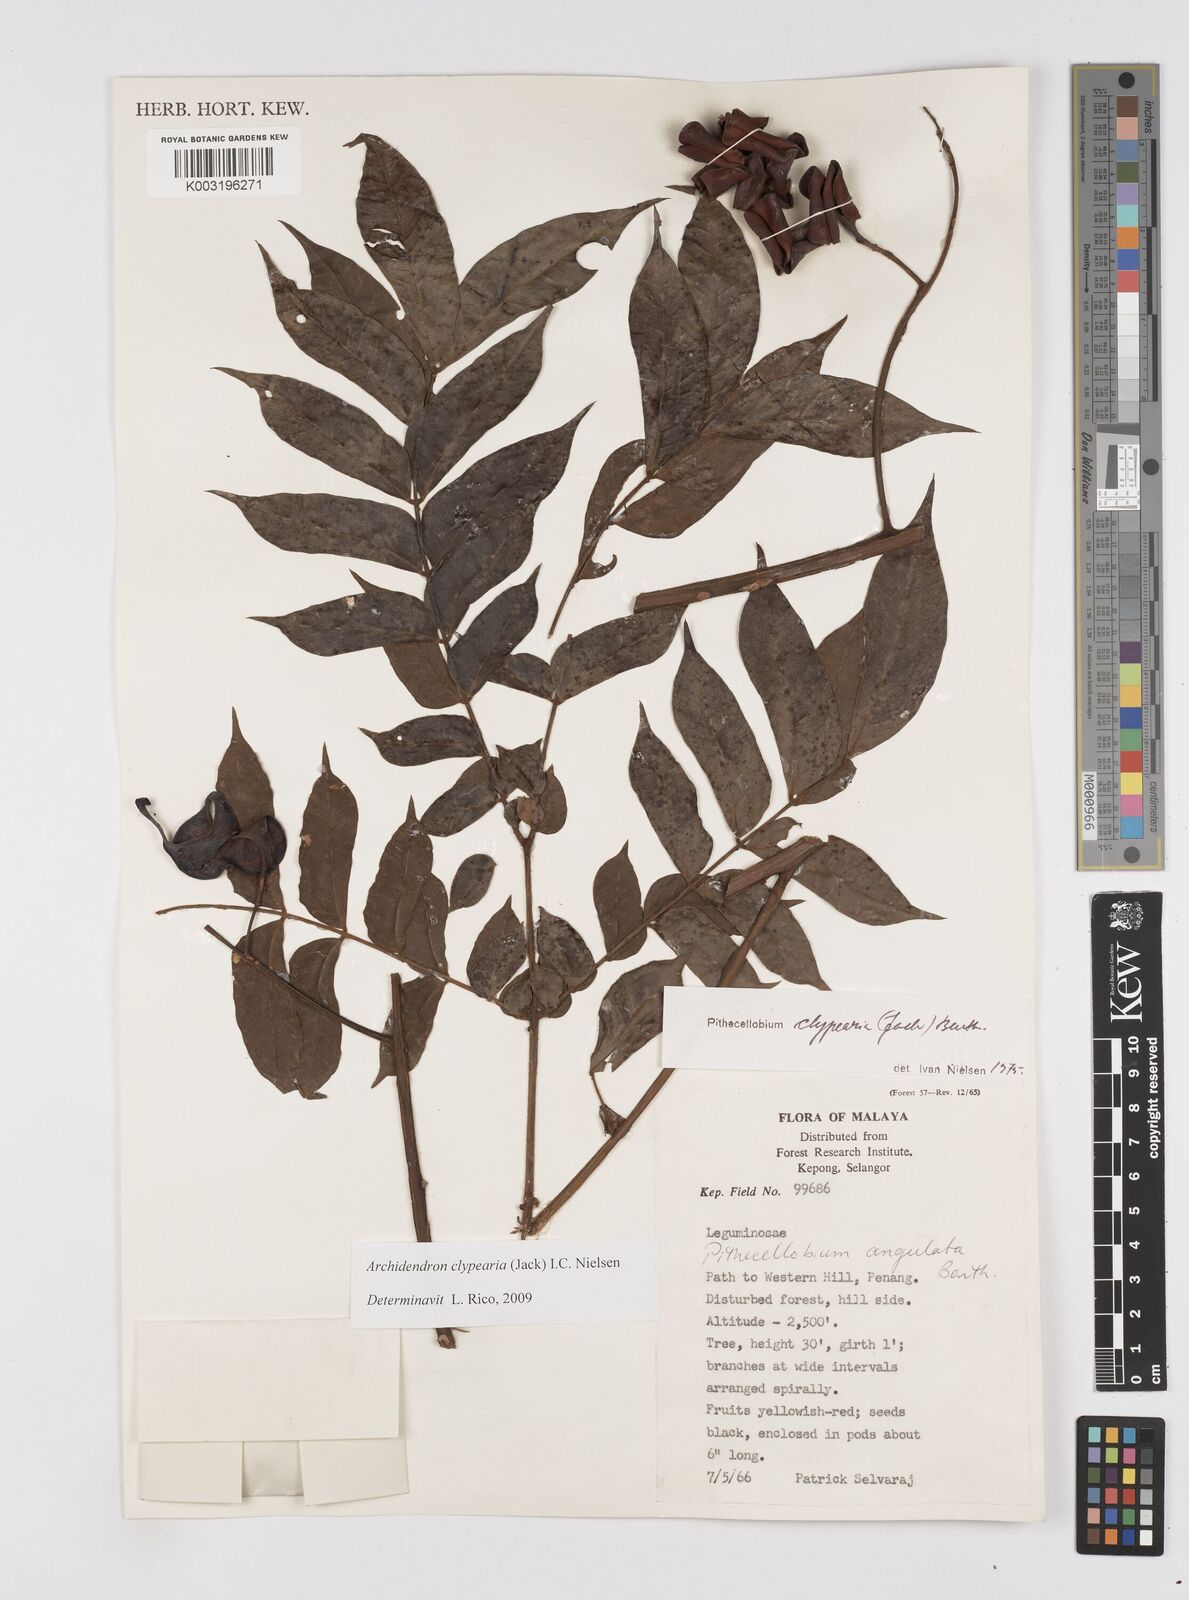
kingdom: Plantae
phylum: Tracheophyta
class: Magnoliopsida
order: Fabales
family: Fabaceae
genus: Archidendron
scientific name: Archidendron clypearia
